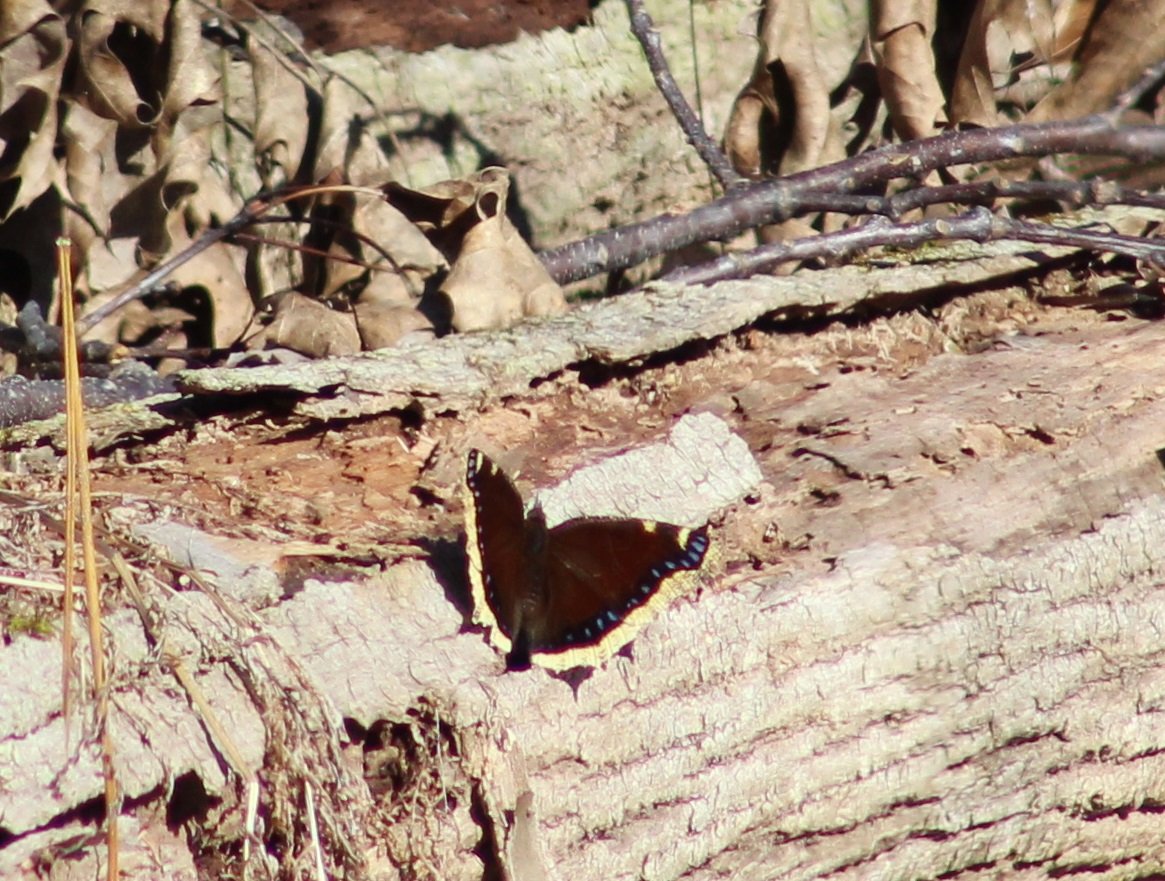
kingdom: Animalia
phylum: Arthropoda
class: Insecta
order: Lepidoptera
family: Nymphalidae
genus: Nymphalis
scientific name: Nymphalis antiopa
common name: Mourning Cloak
